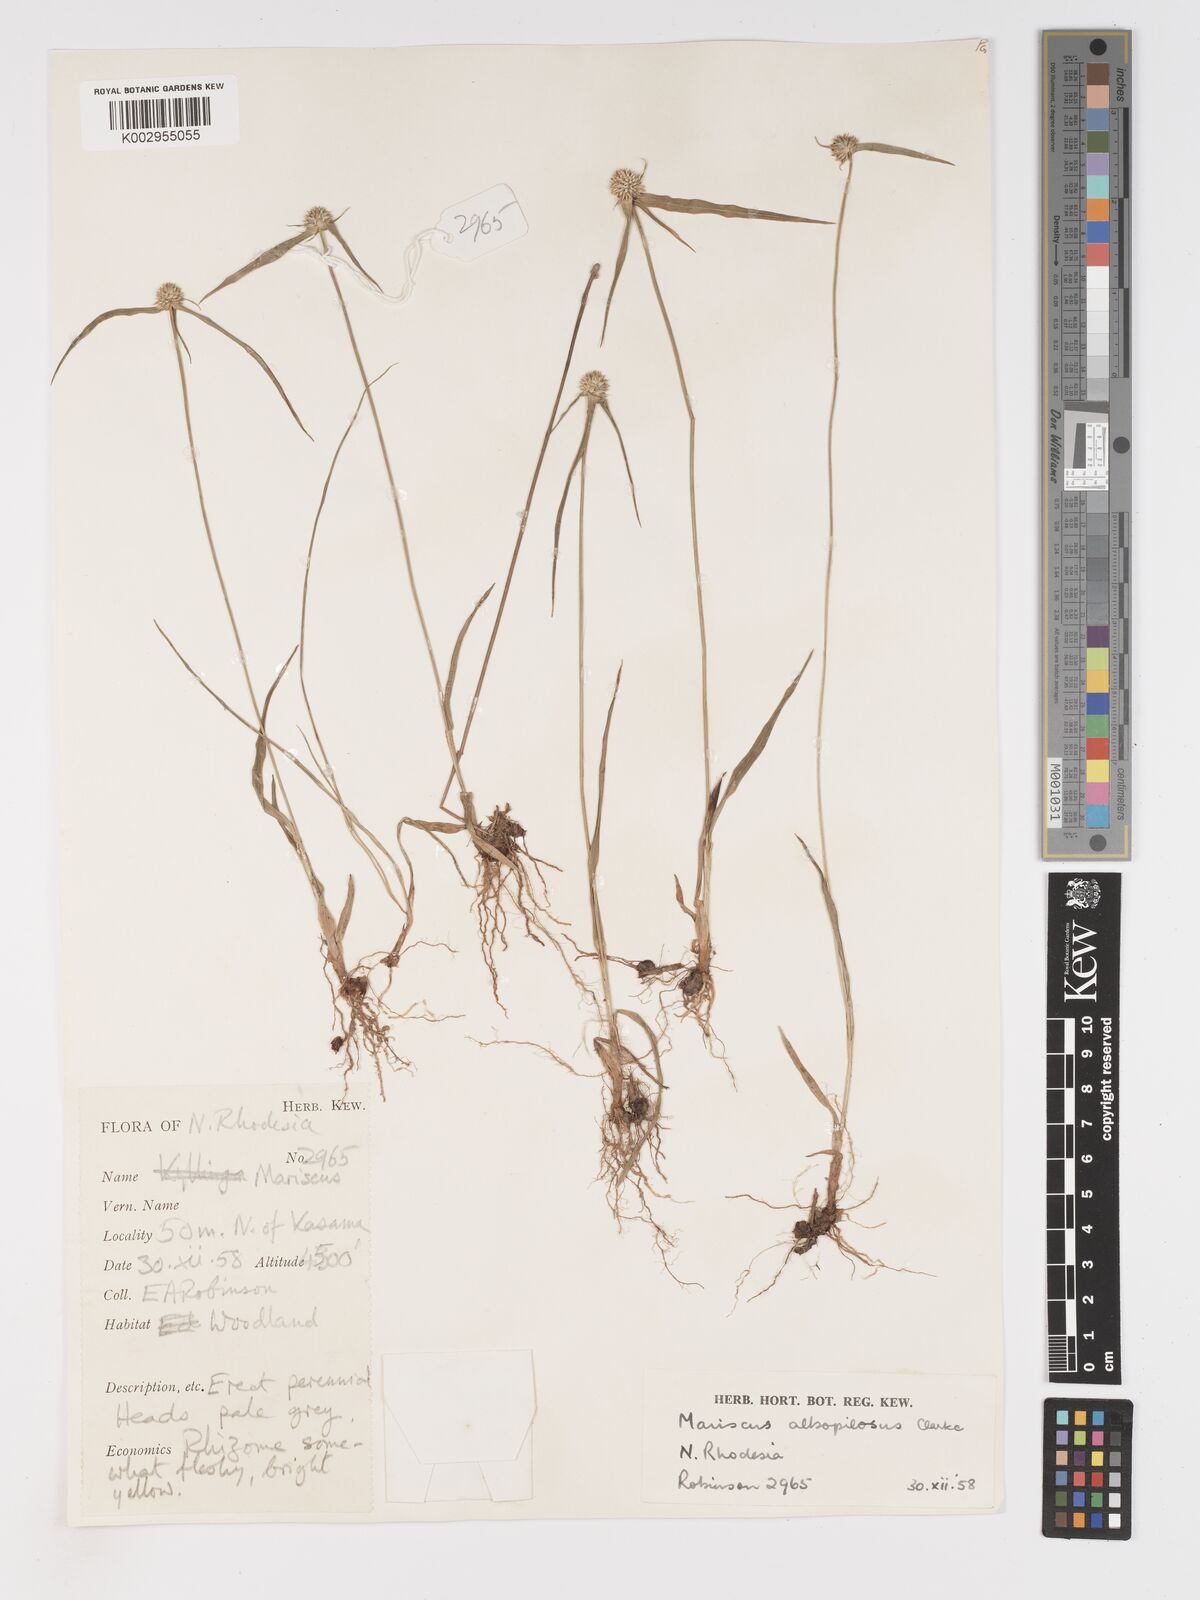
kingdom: Plantae
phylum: Tracheophyta
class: Liliopsida
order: Poales
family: Cyperaceae
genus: Cyperus
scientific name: Cyperus albopilosus
